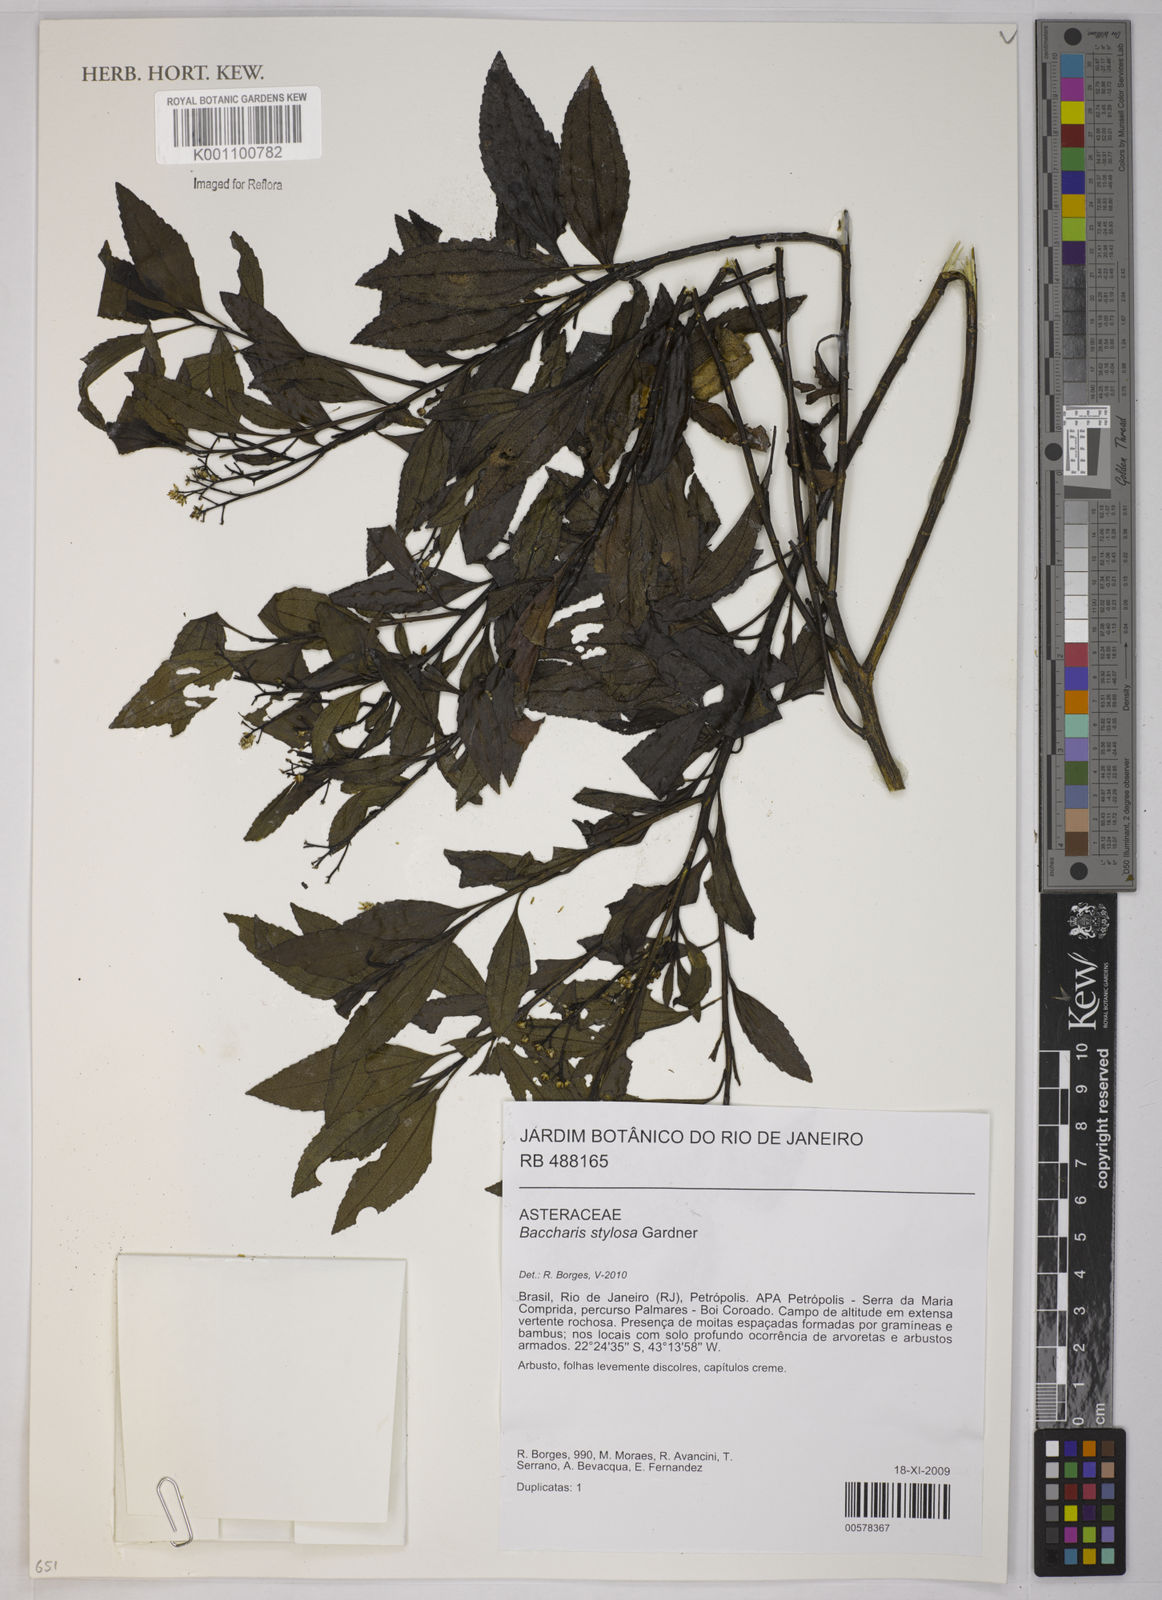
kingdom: Plantae
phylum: Tracheophyta
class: Magnoliopsida
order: Asterales
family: Asteraceae
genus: Baccharis
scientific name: Baccharis stylosa
